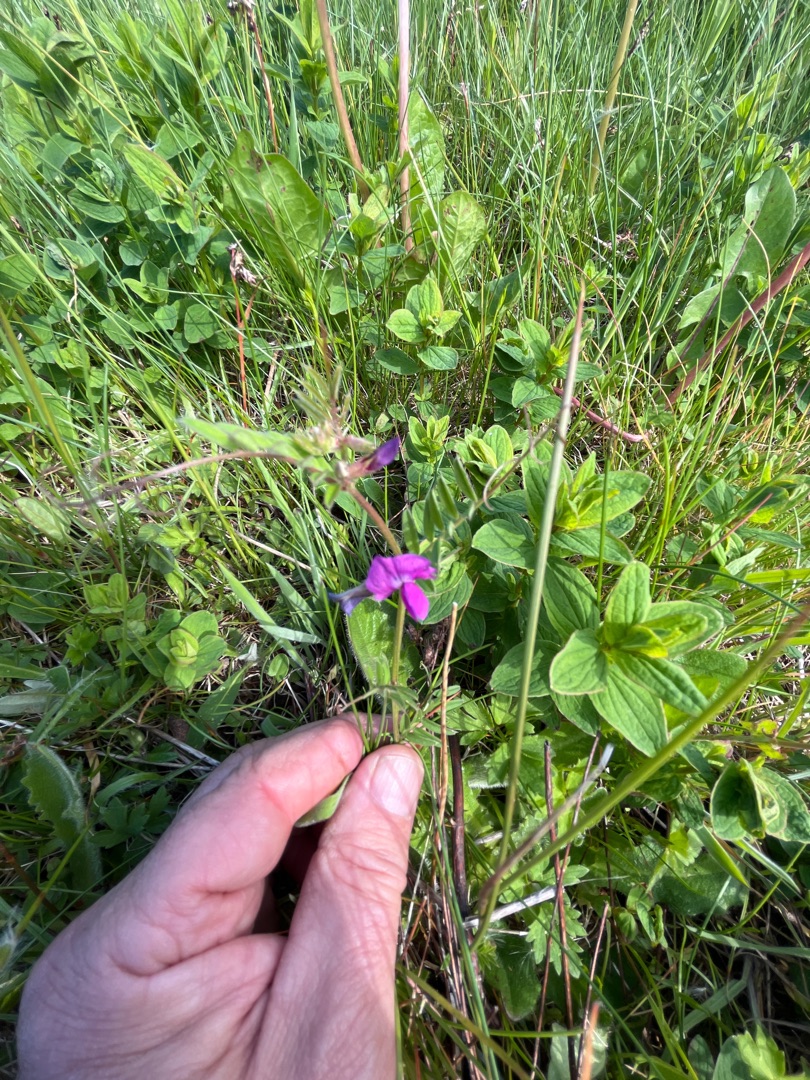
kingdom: Plantae
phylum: Tracheophyta
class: Magnoliopsida
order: Fabales
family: Fabaceae
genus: Vicia
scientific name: Vicia sativa
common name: Smalbladet vikke
